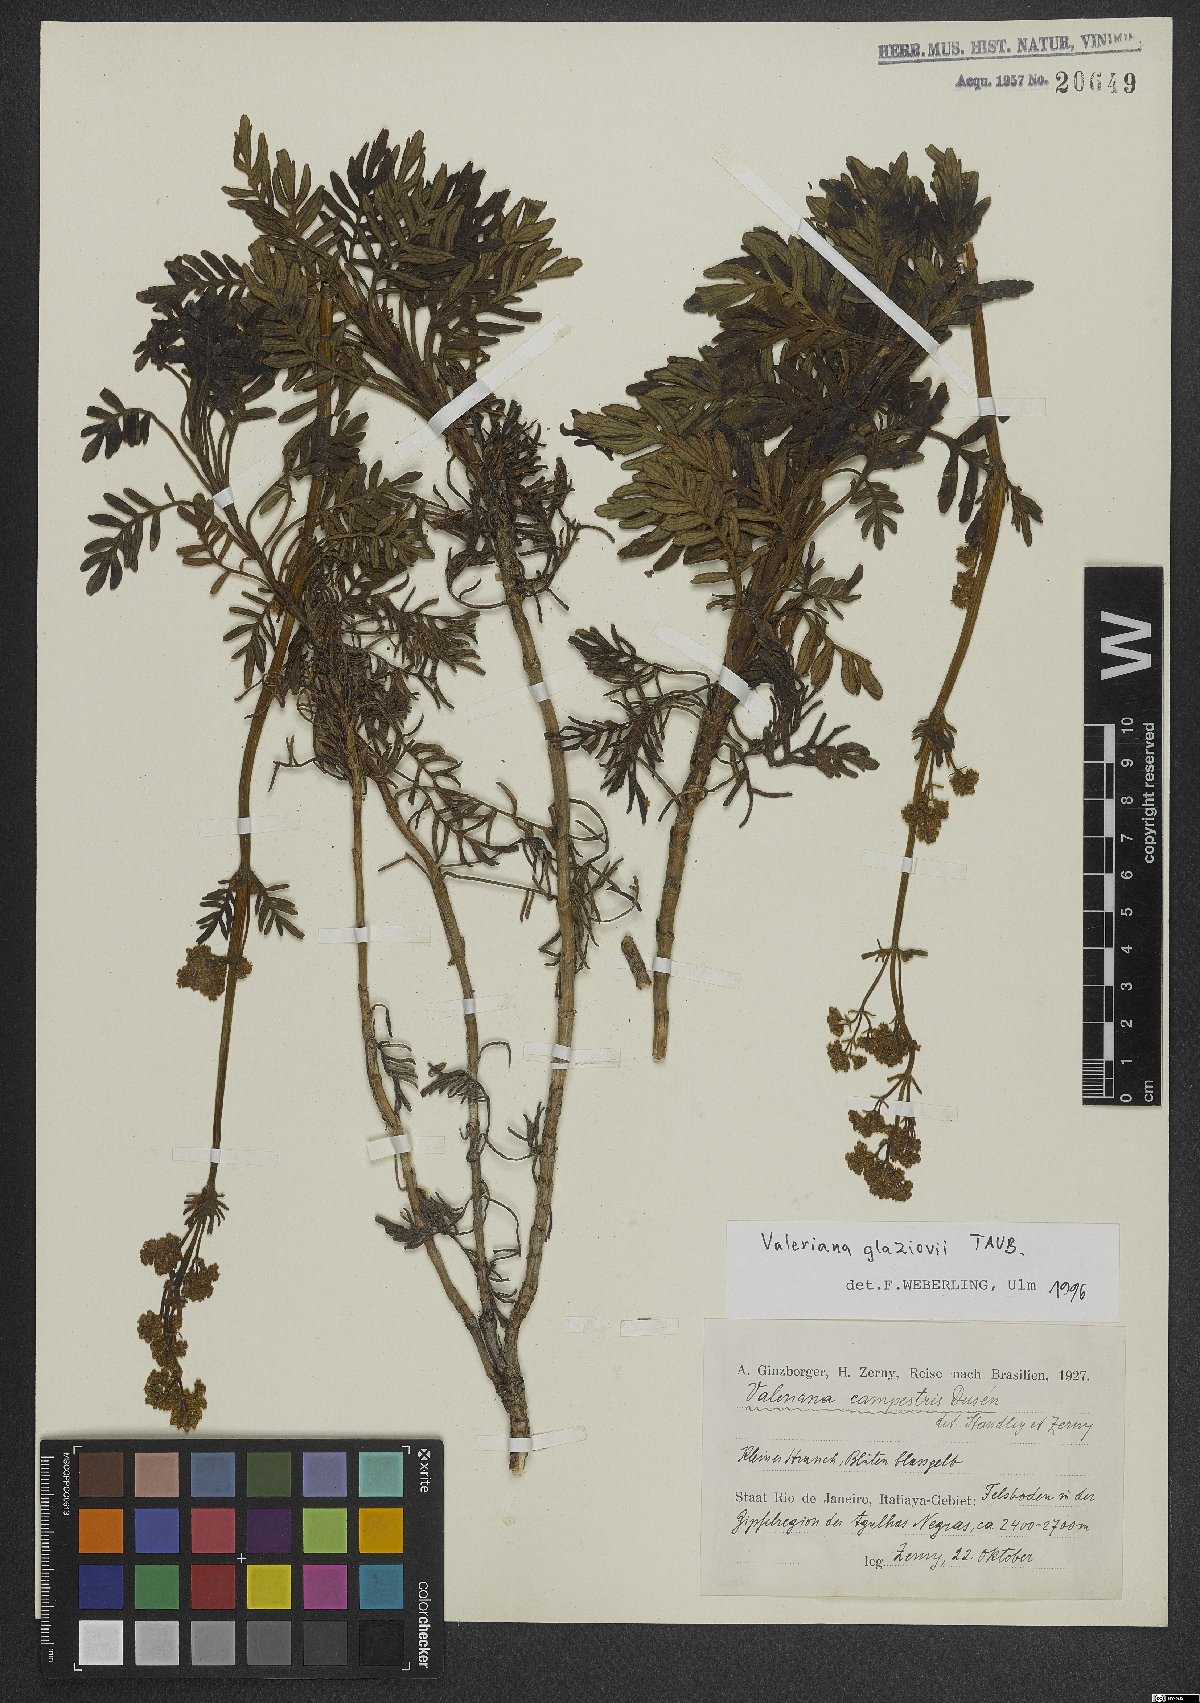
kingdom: Plantae
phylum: Tracheophyta
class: Magnoliopsida
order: Dipsacales
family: Caprifoliaceae
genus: Valeriana
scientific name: Valeriana glaziovii
